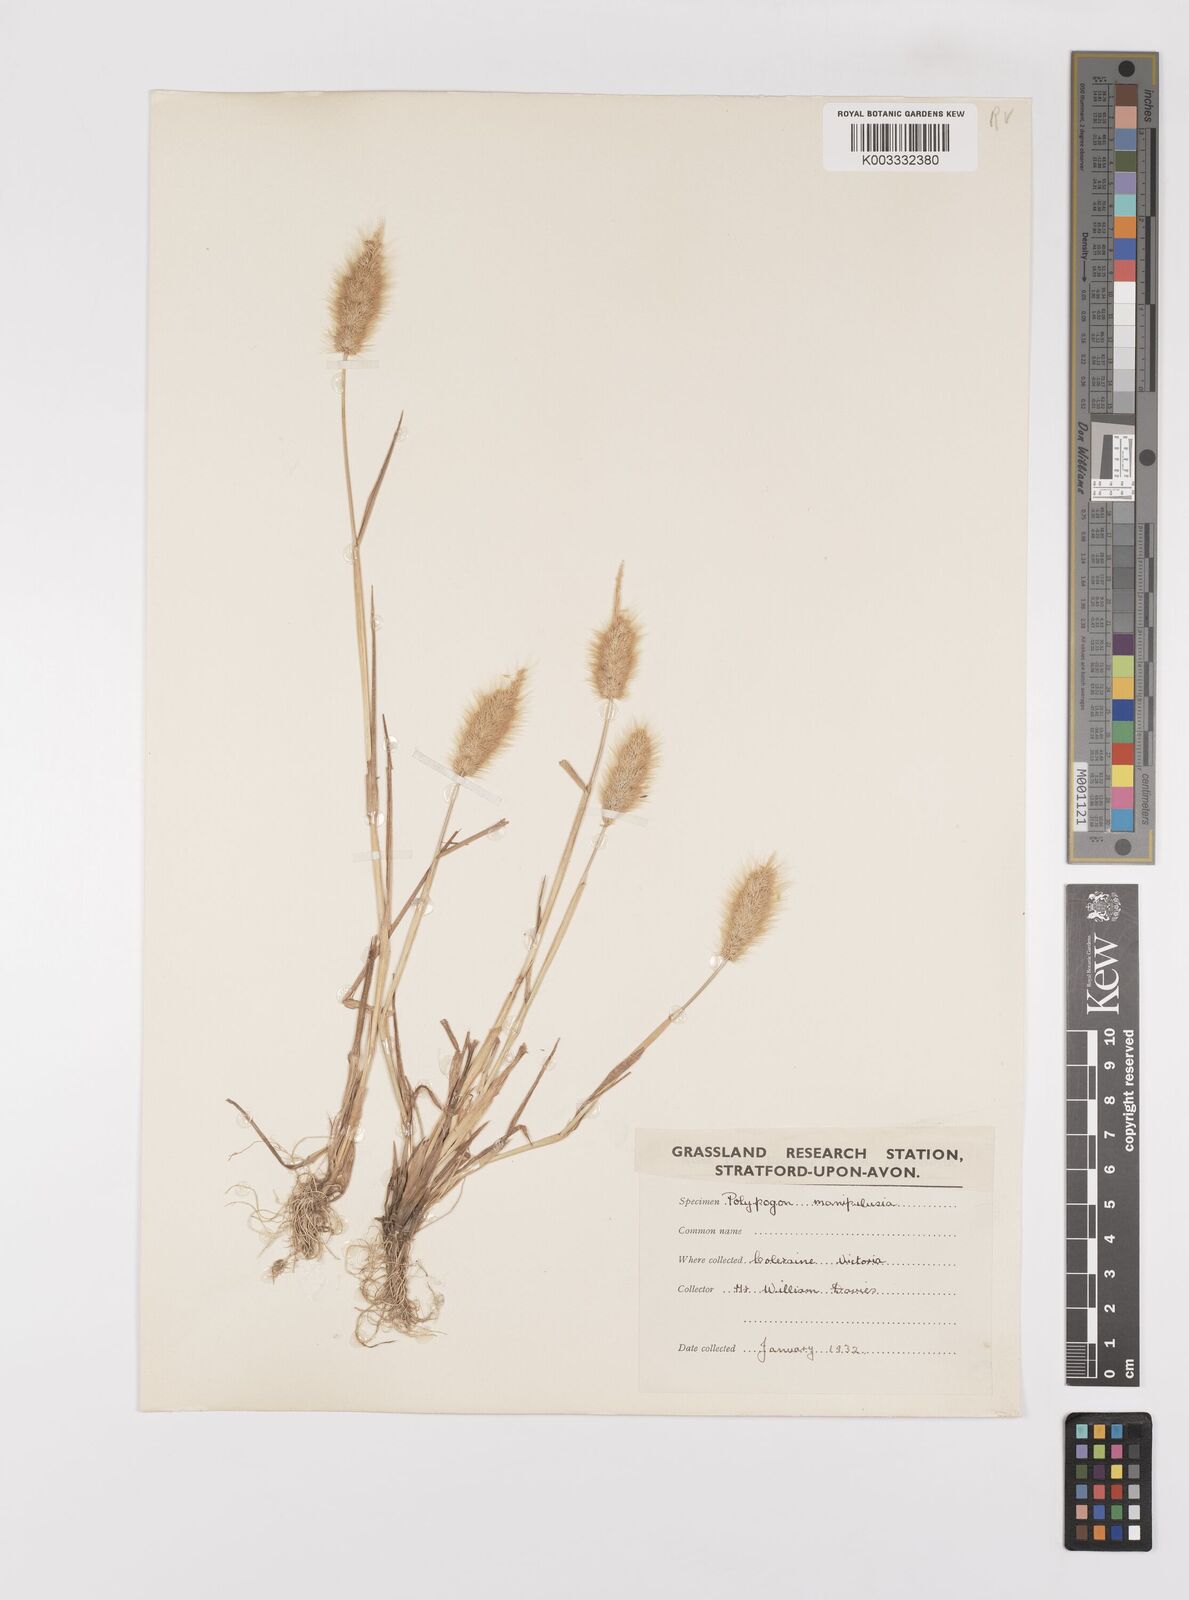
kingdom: Plantae
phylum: Tracheophyta
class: Liliopsida
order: Poales
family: Poaceae
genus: Polypogon
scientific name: Polypogon monspeliensis
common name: Annual rabbitsfoot grass
